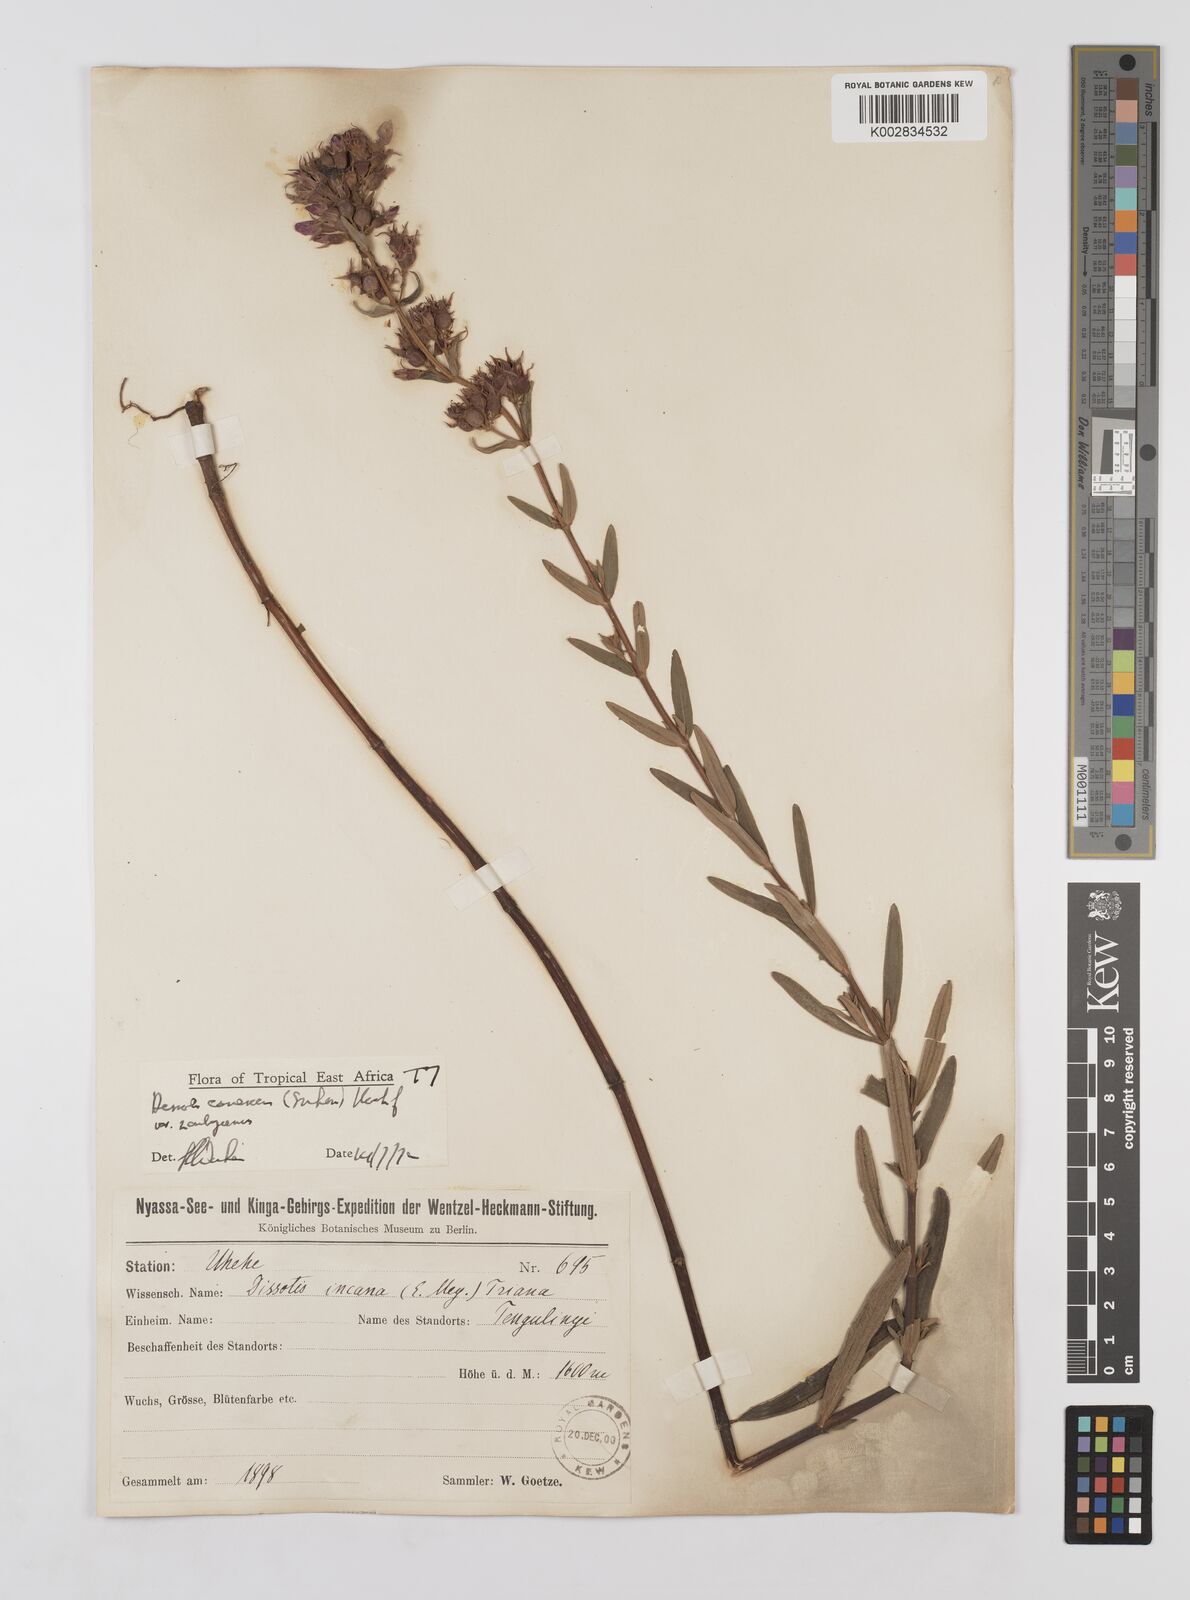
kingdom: Plantae
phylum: Tracheophyta
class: Magnoliopsida
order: Myrtales
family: Melastomataceae
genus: Argyrella
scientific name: Argyrella canescens
